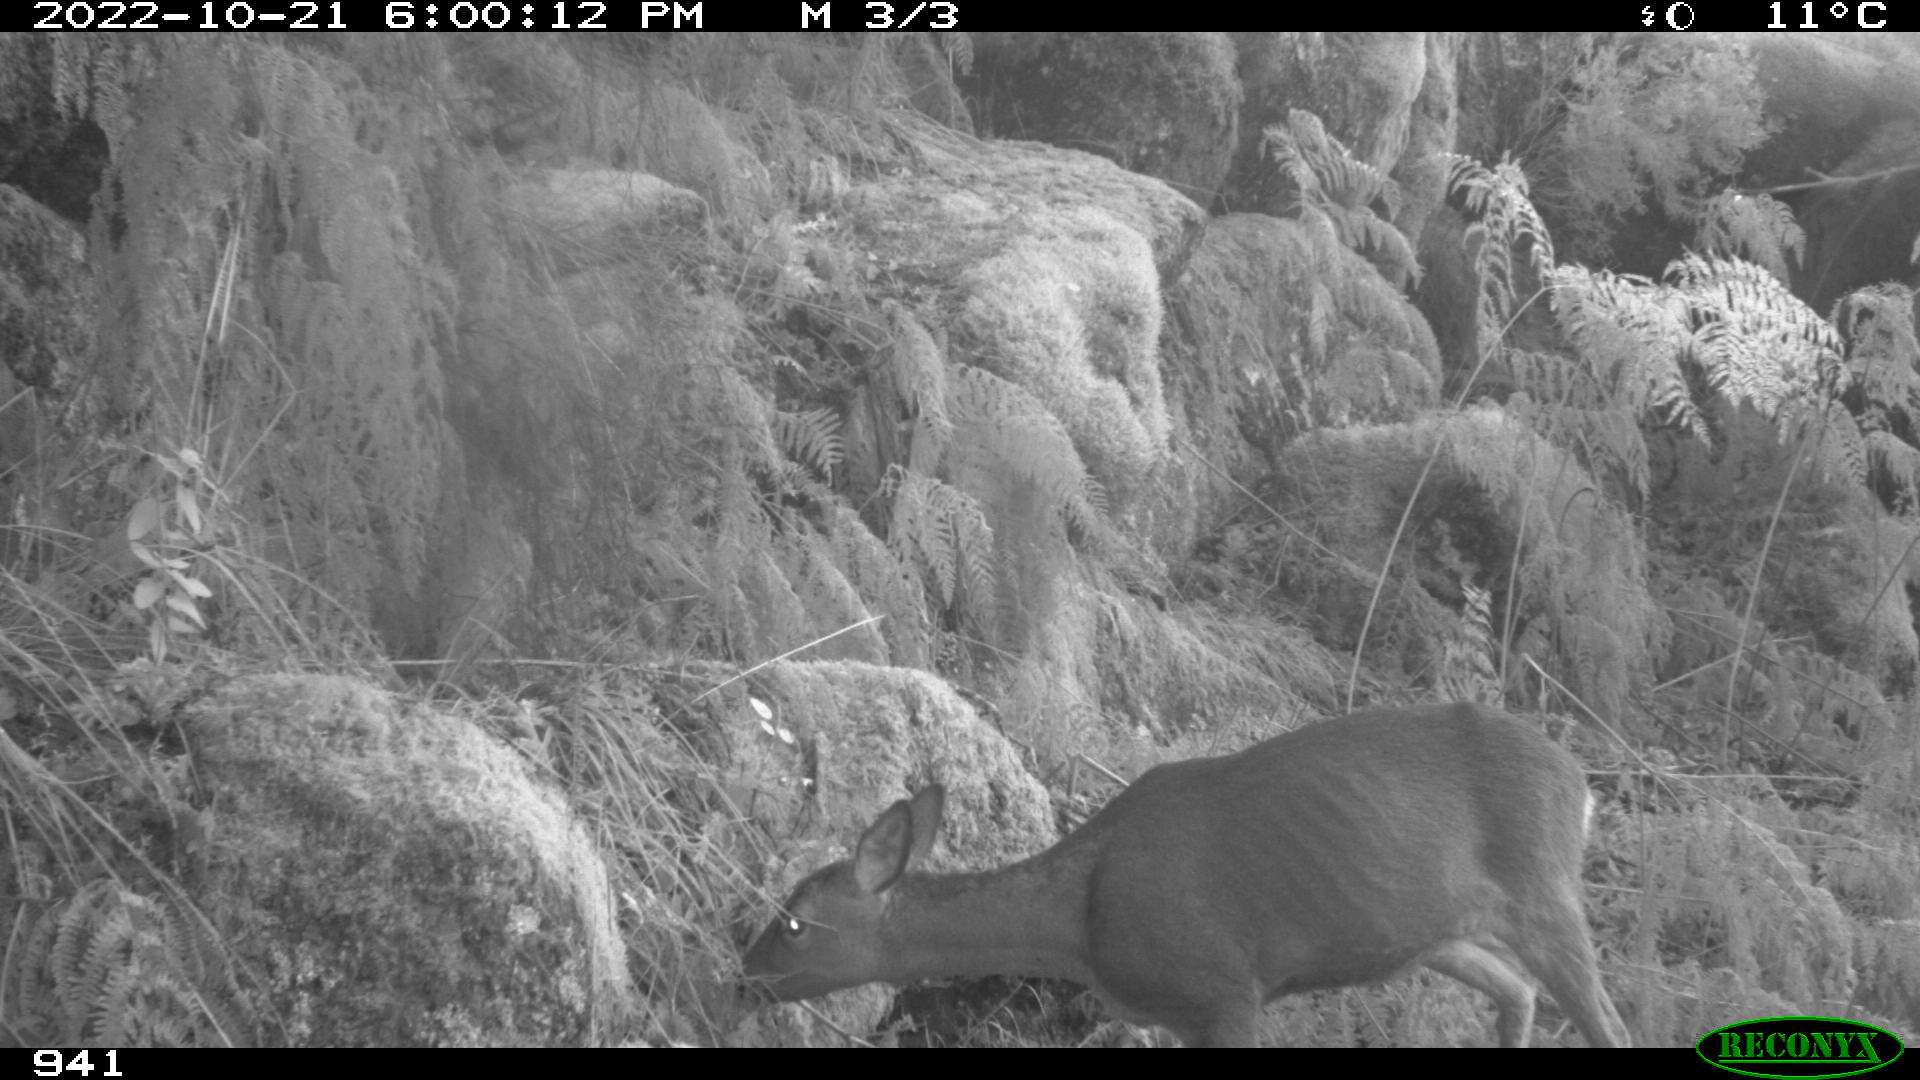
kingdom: Animalia
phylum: Chordata
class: Mammalia
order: Artiodactyla
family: Cervidae
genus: Capreolus
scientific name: Capreolus capreolus
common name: Western roe deer
